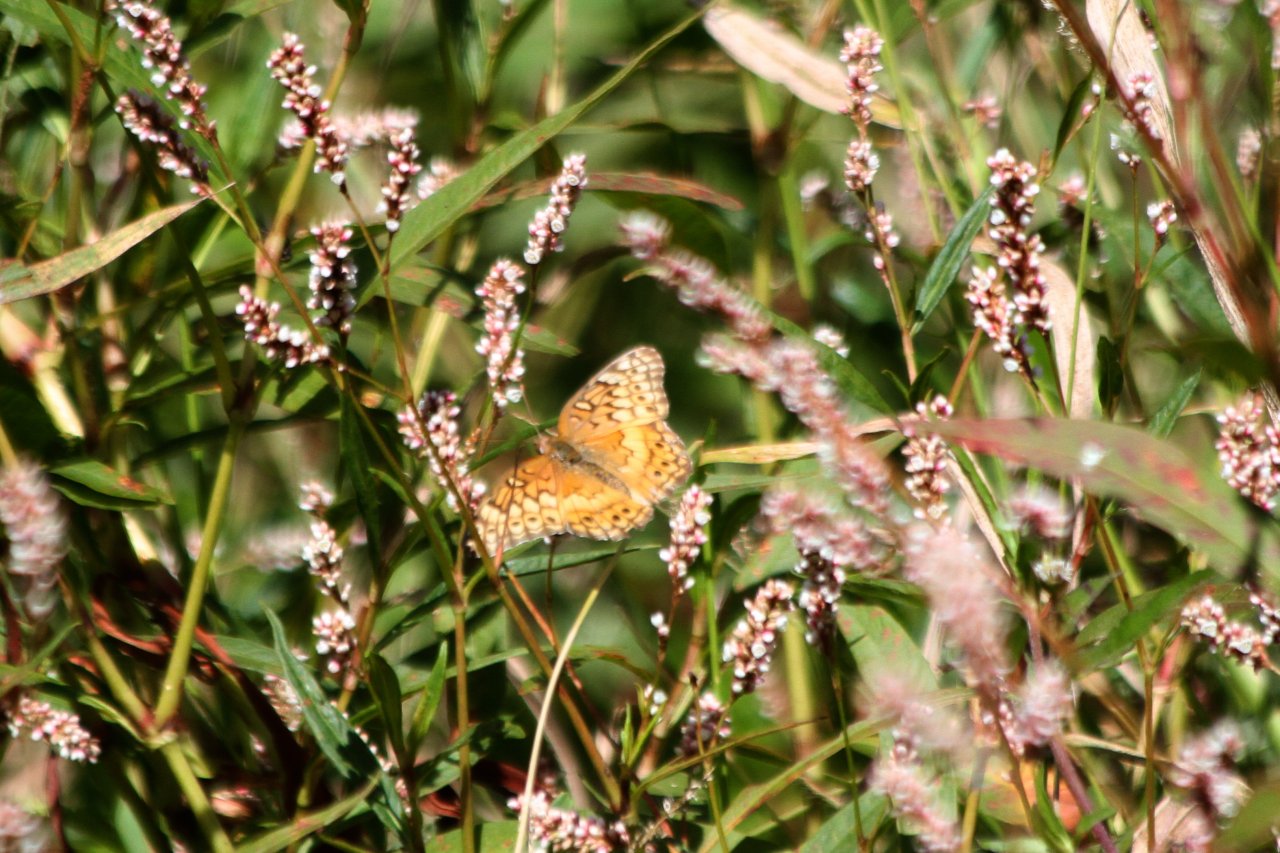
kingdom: Animalia
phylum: Arthropoda
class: Insecta
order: Lepidoptera
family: Nymphalidae
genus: Euptoieta
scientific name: Euptoieta claudia
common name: Variegated Fritillary
